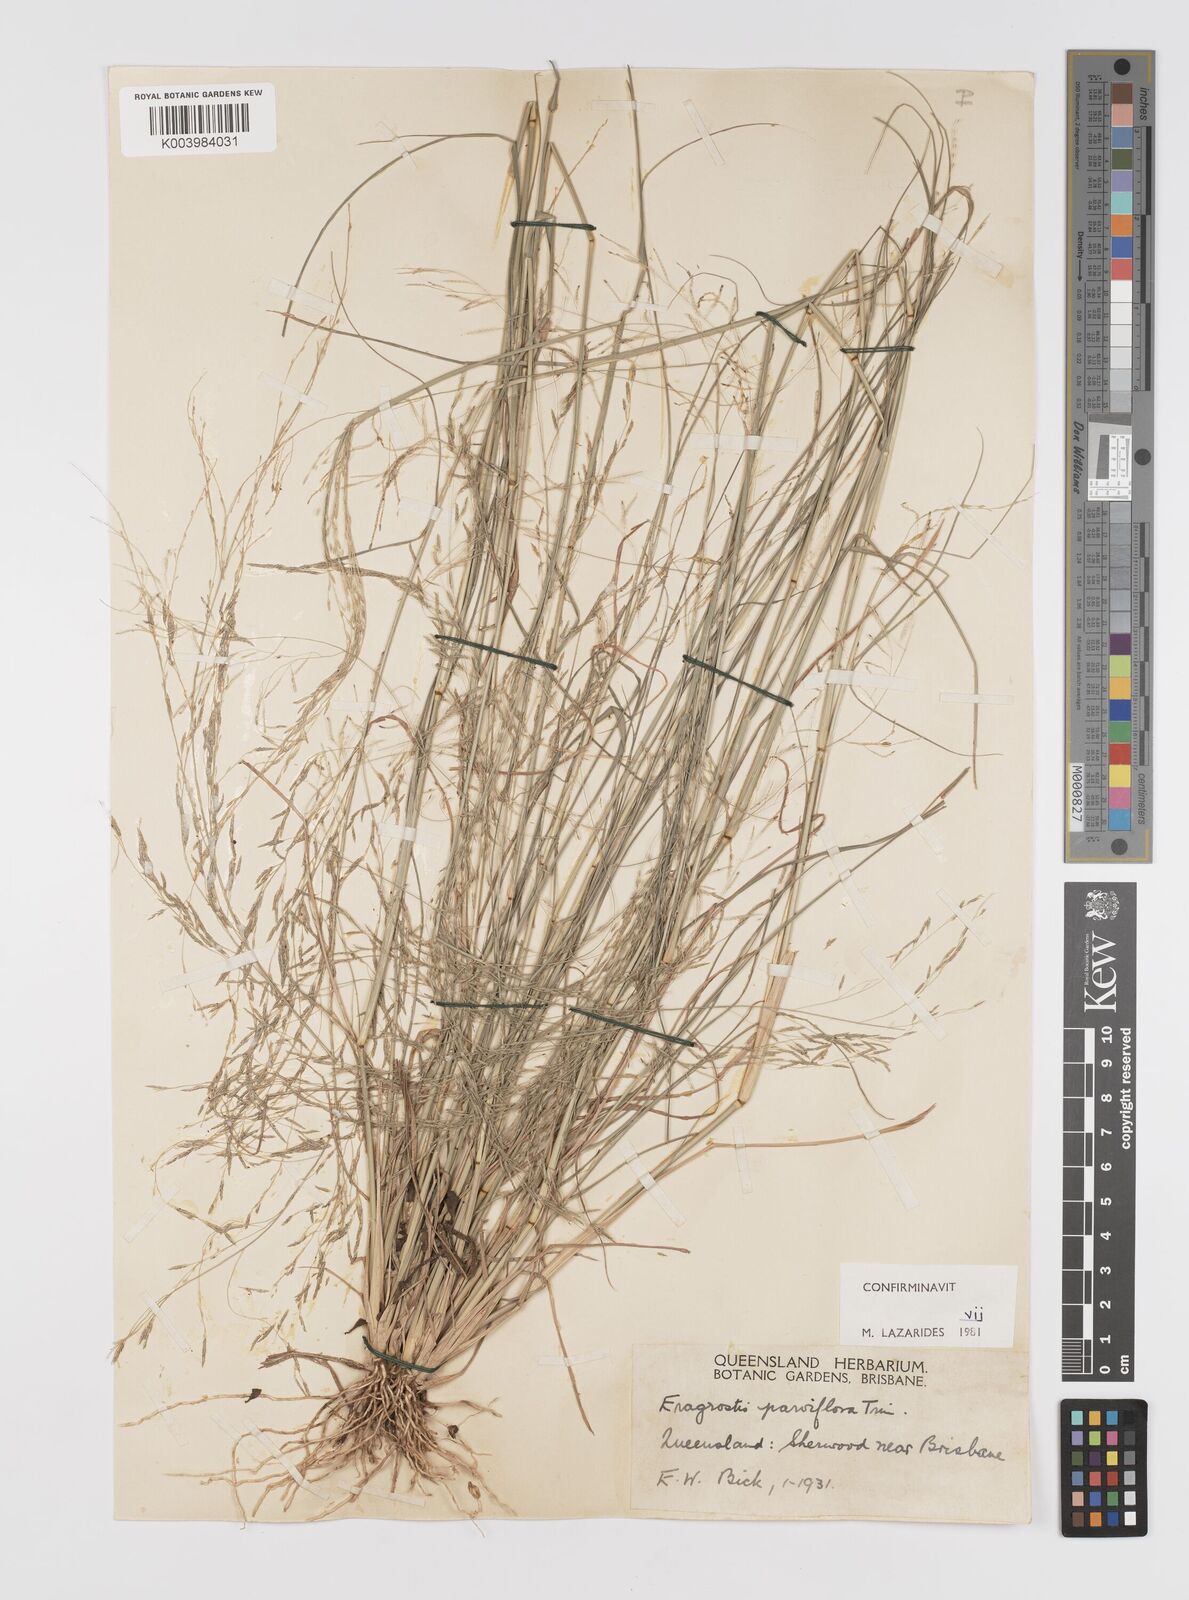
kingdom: Plantae
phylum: Tracheophyta
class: Liliopsida
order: Poales
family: Poaceae
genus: Eragrostis
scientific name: Eragrostis parviflora
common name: Weeping love-grass
